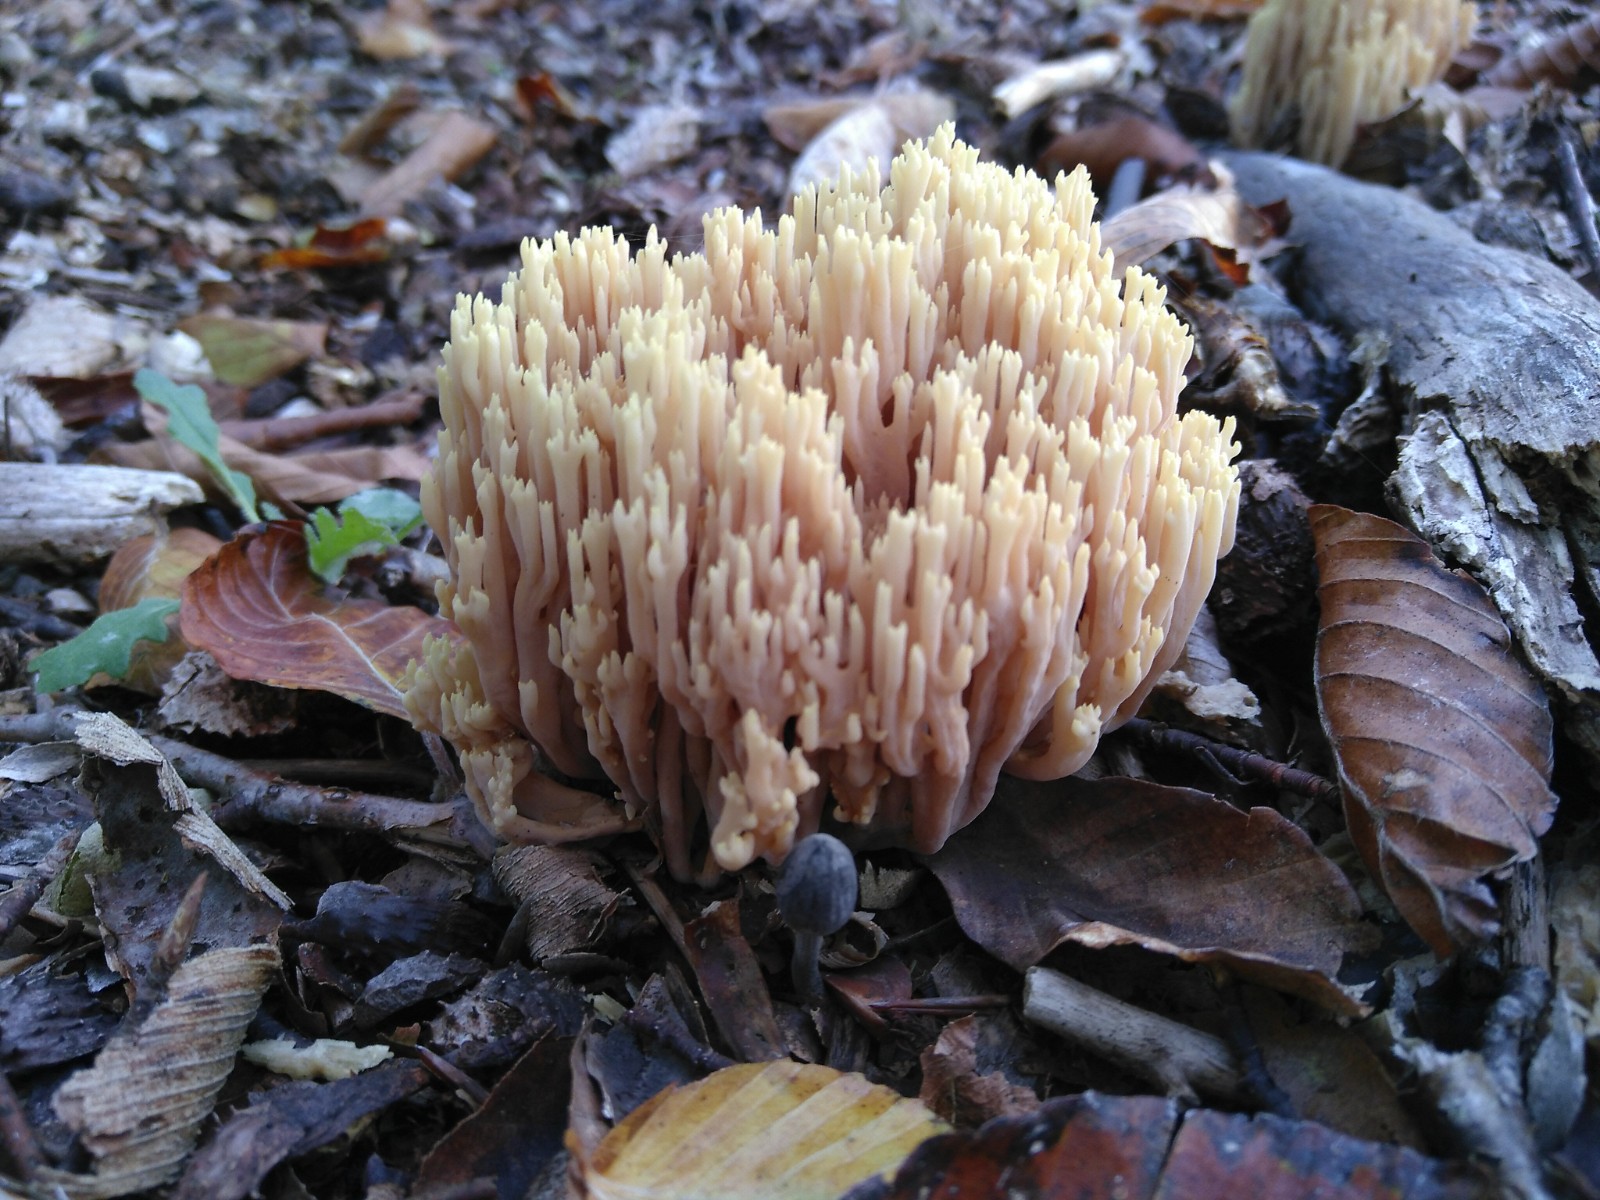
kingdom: Fungi
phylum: Basidiomycota
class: Agaricomycetes
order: Gomphales
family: Gomphaceae
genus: Ramaria
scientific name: Ramaria stricta
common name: rank koralsvamp
